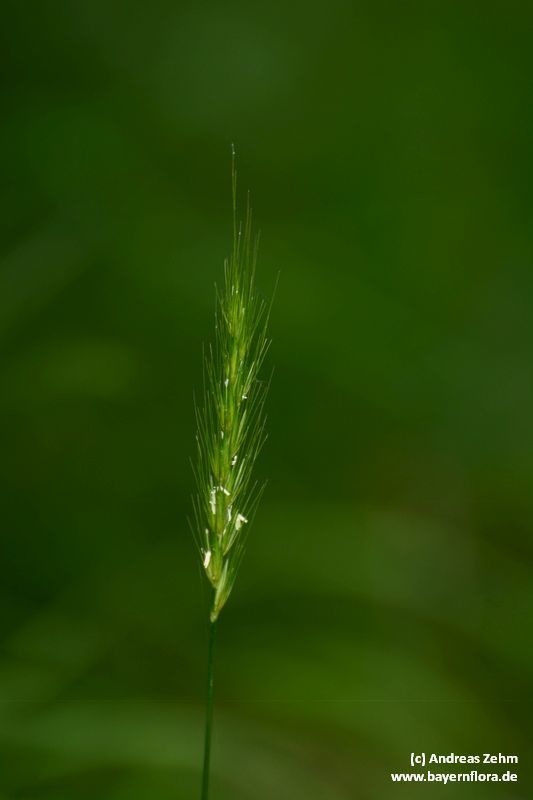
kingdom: Plantae
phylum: Tracheophyta
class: Liliopsida
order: Poales
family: Poaceae
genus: Hordelymus
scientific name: Hordelymus europaeus
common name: Wood-barley
